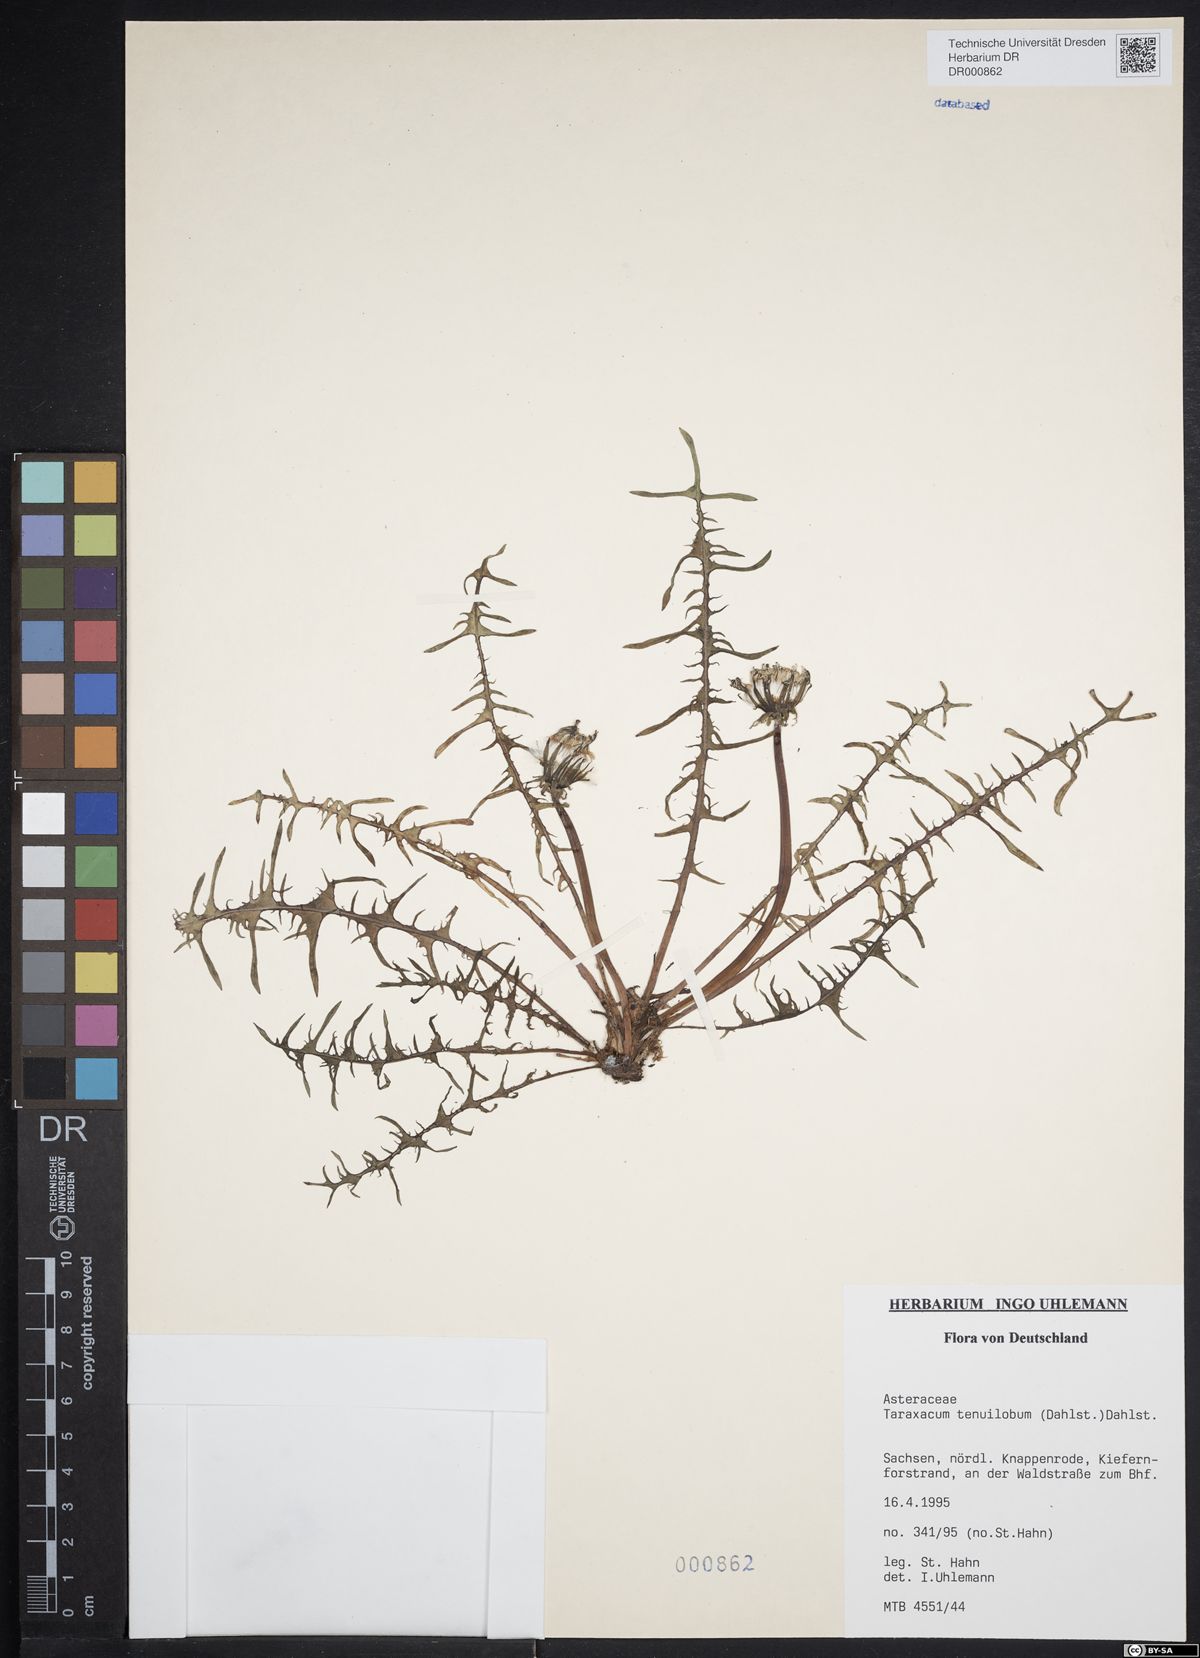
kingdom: Plantae
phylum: Tracheophyta
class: Magnoliopsida
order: Asterales
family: Asteraceae
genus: Taraxacum
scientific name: Taraxacum tenuilobum
